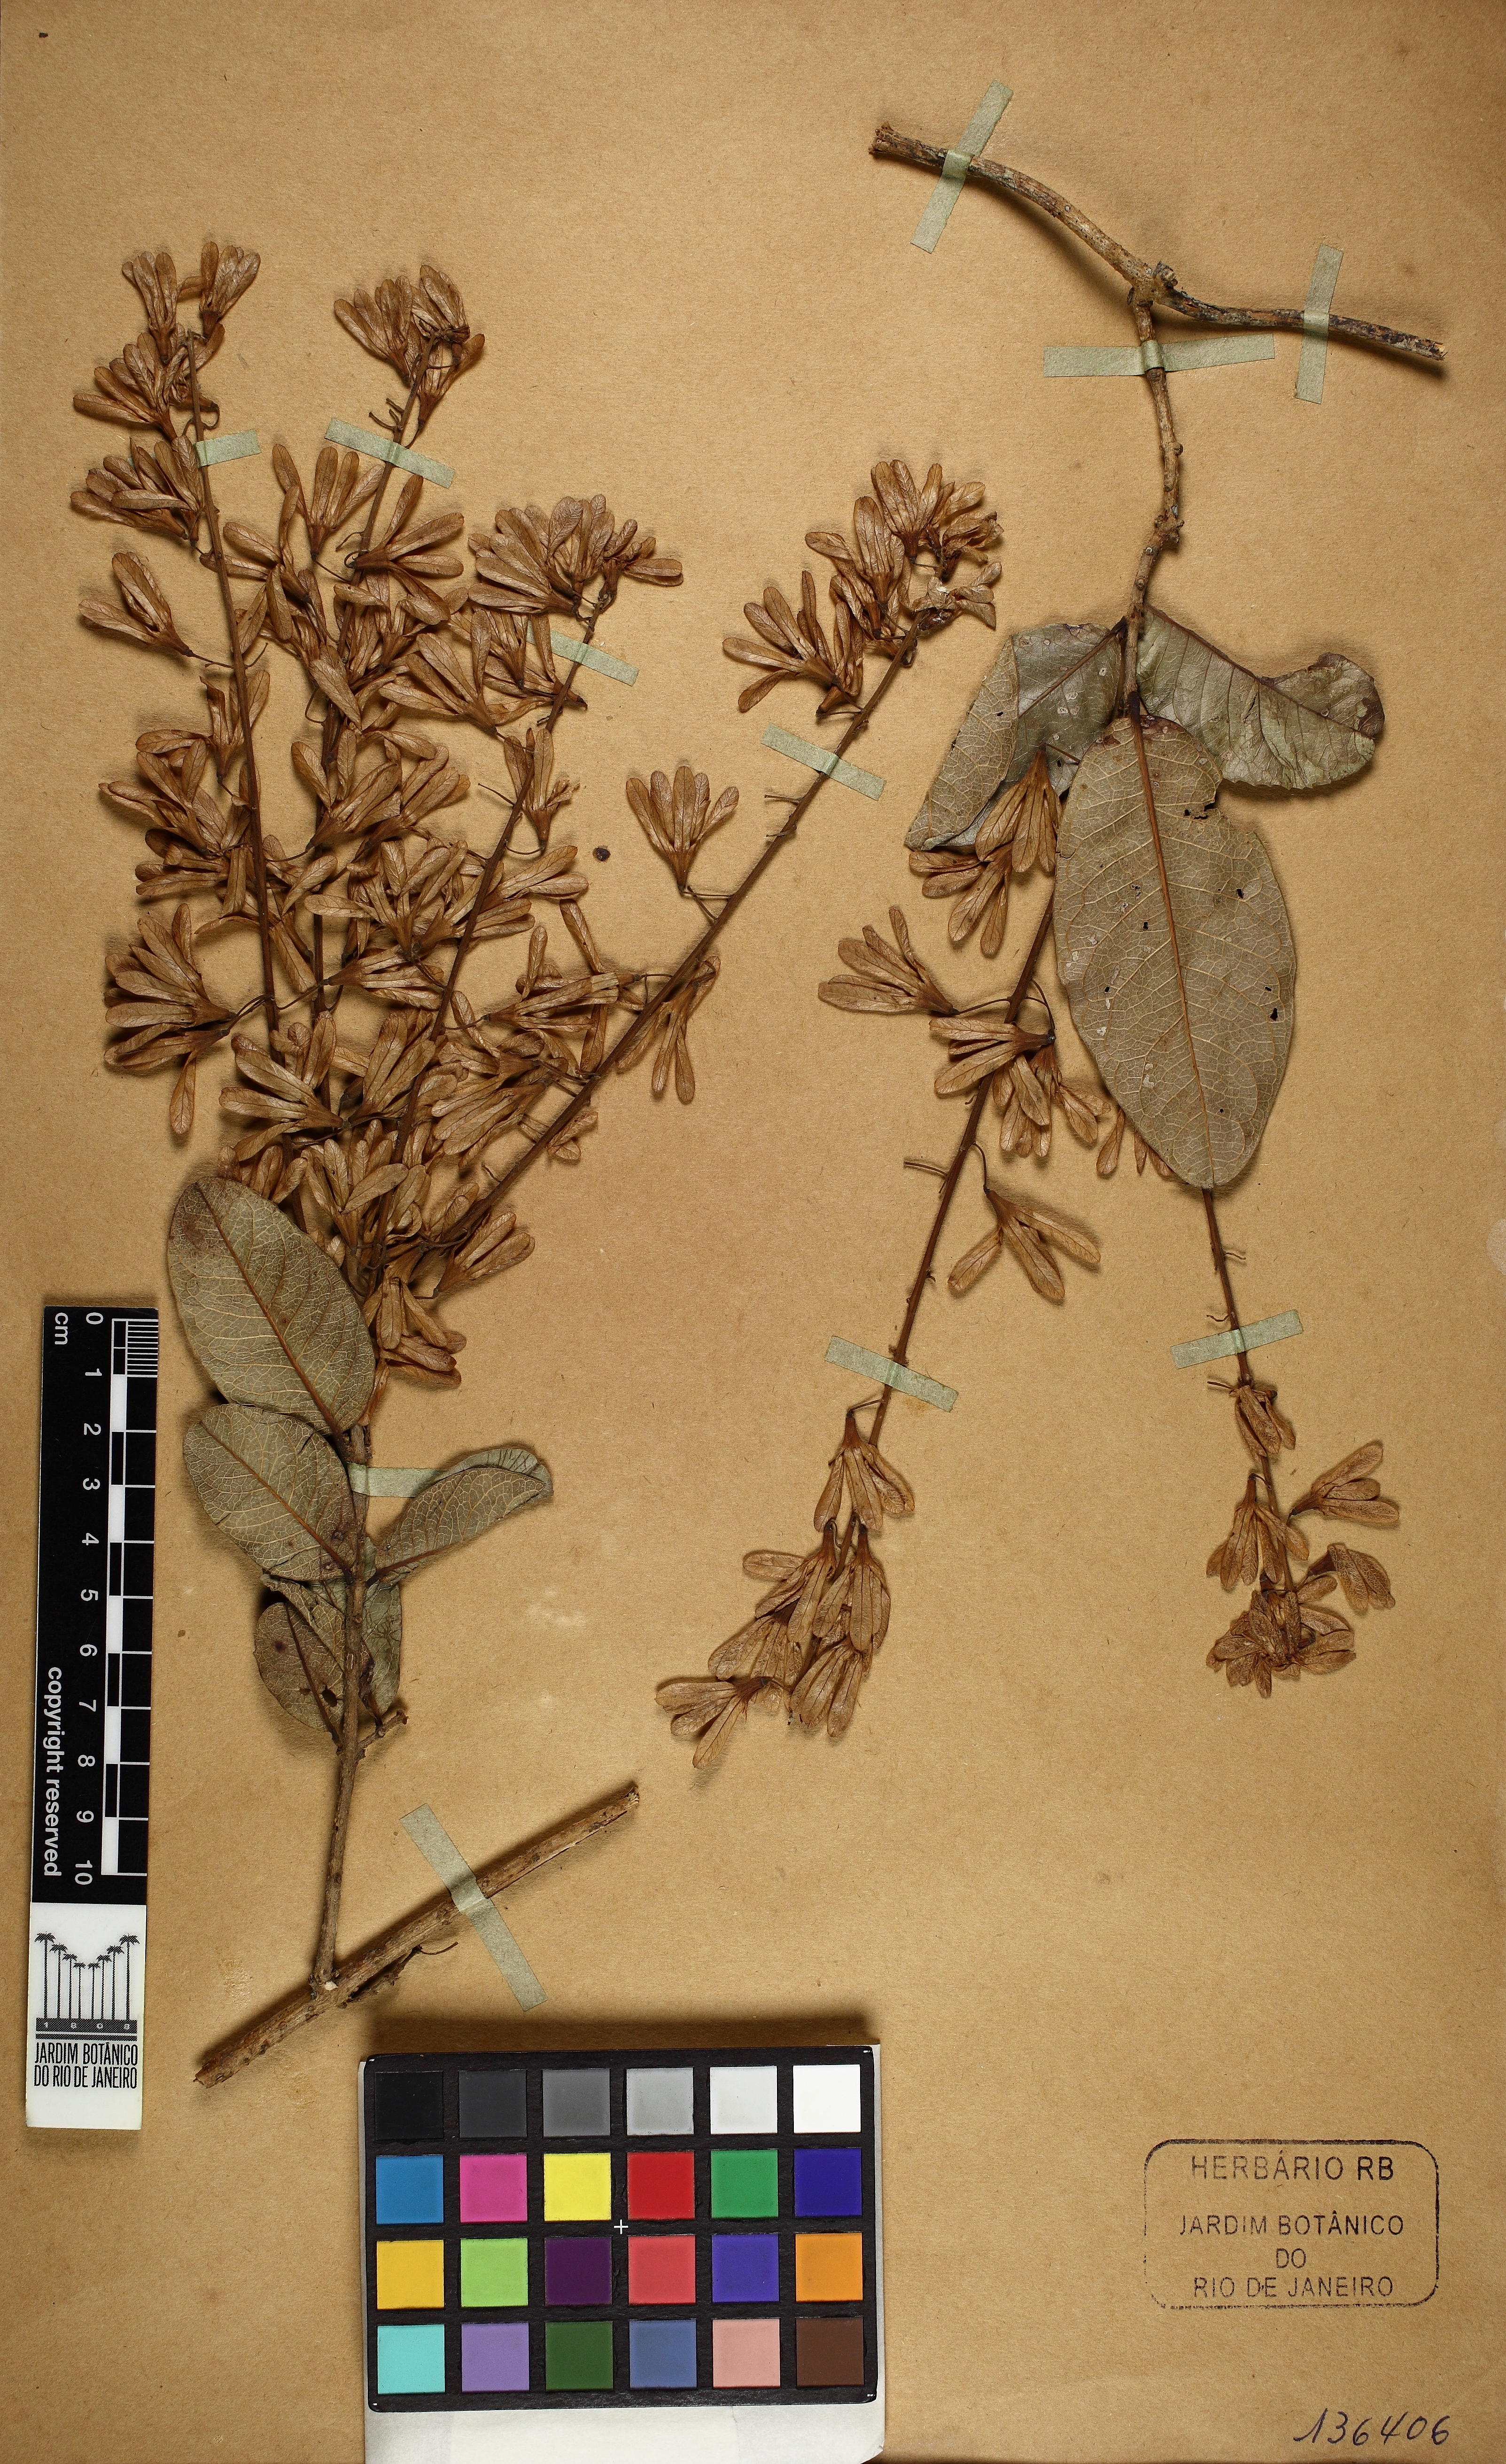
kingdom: Plantae
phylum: Tracheophyta
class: Magnoliopsida
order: Lamiales
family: Verbenaceae
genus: Petrea
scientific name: Petrea
